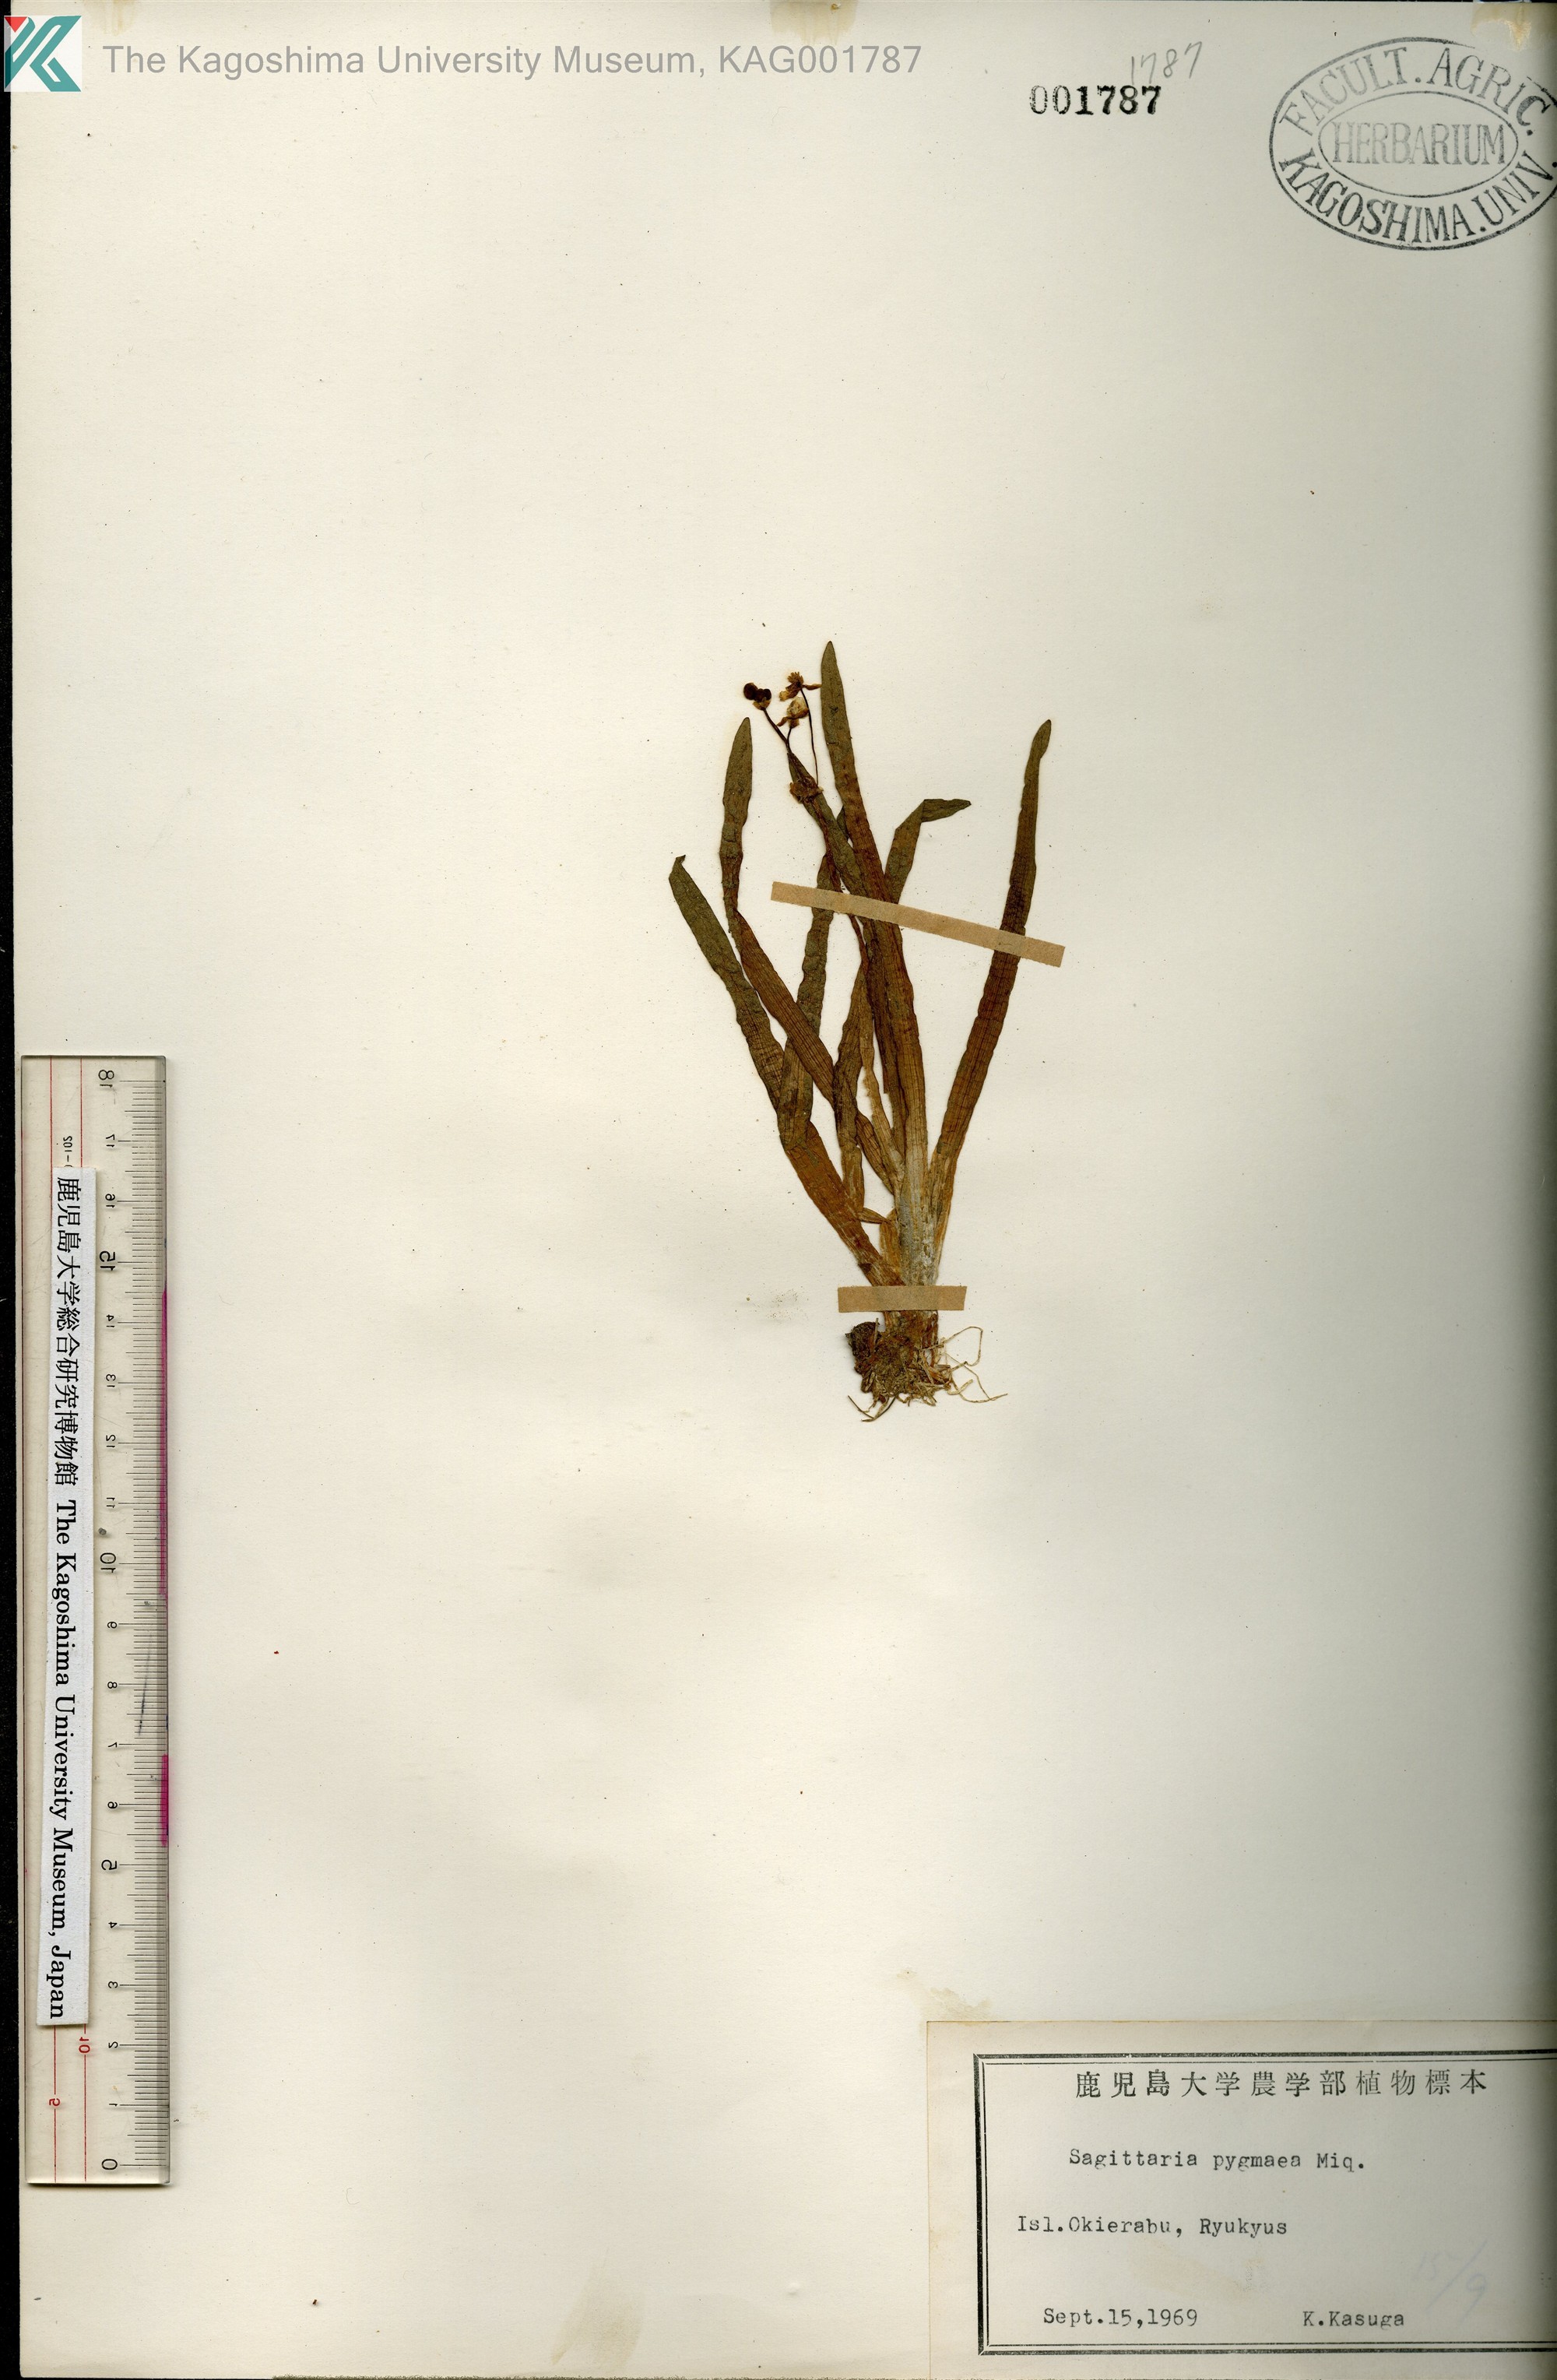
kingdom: Plantae
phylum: Tracheophyta
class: Liliopsida
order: Alismatales
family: Alismataceae
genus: Sagittaria
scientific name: Sagittaria pygmaea
